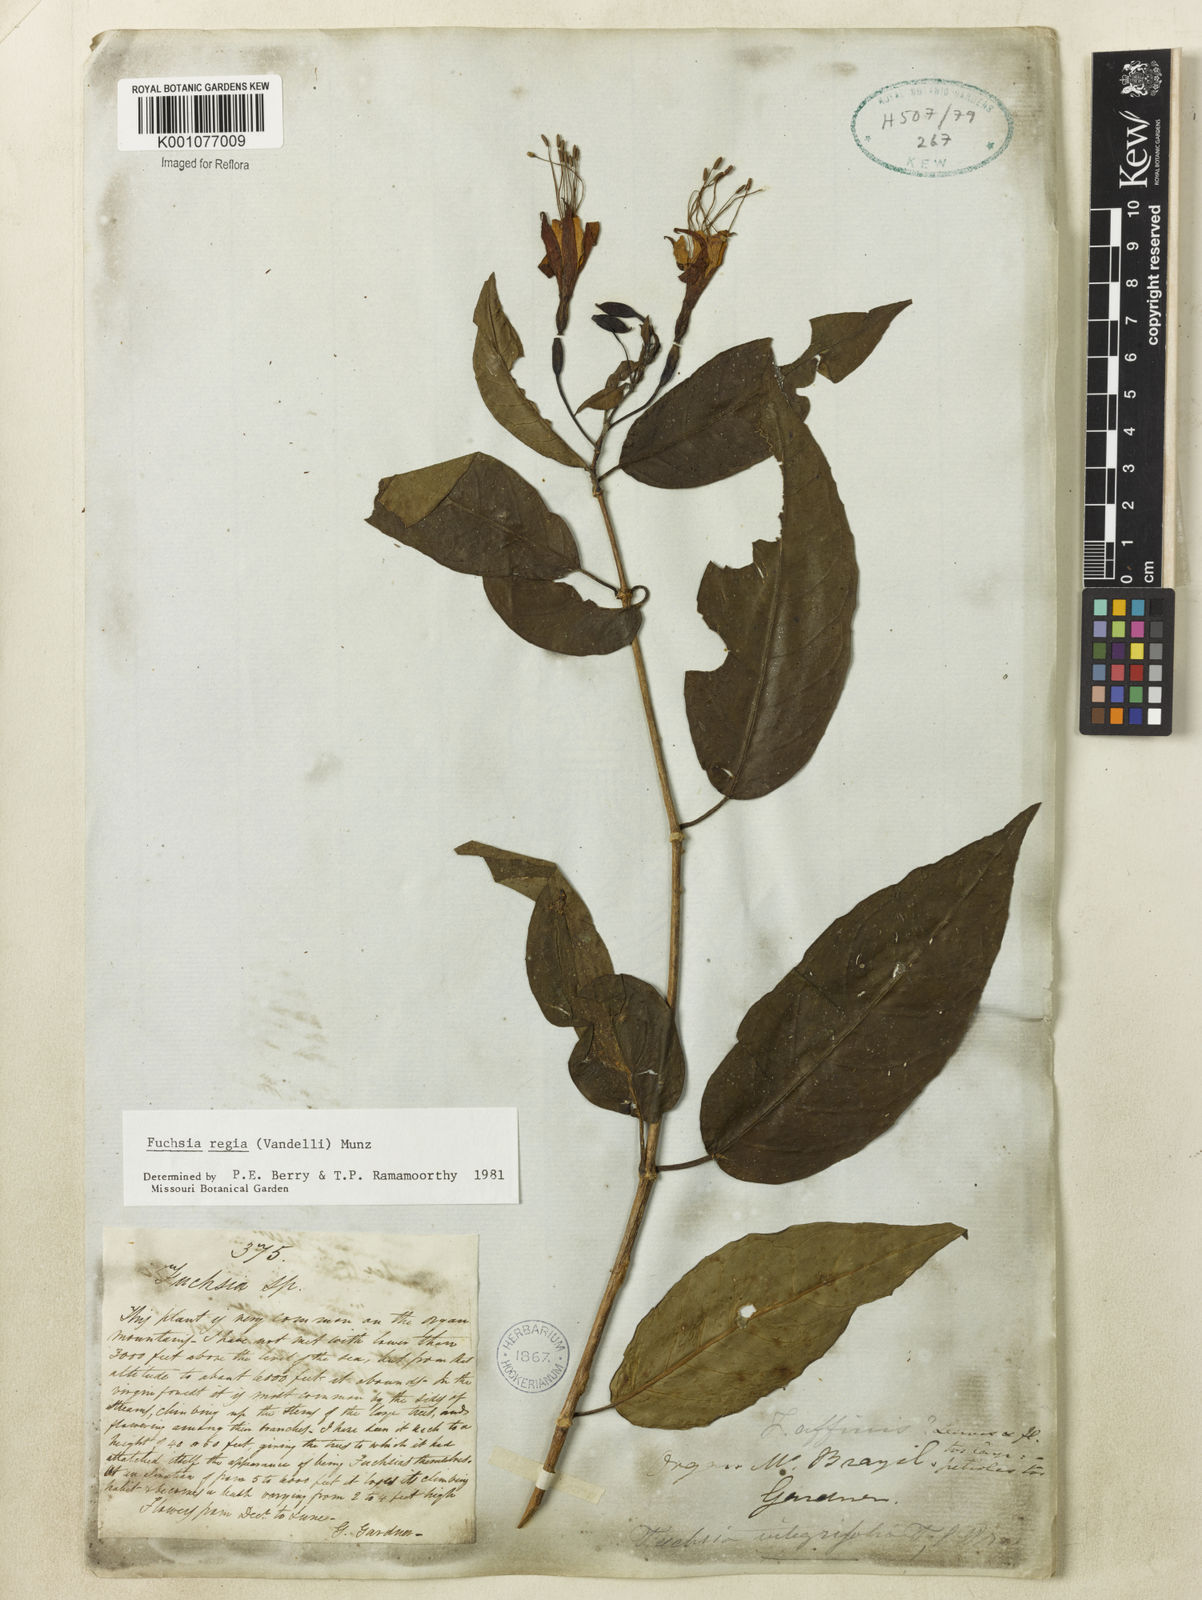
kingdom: Plantae
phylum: Tracheophyta
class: Magnoliopsida
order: Myrtales
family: Onagraceae
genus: Fuchsia
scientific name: Fuchsia regia
